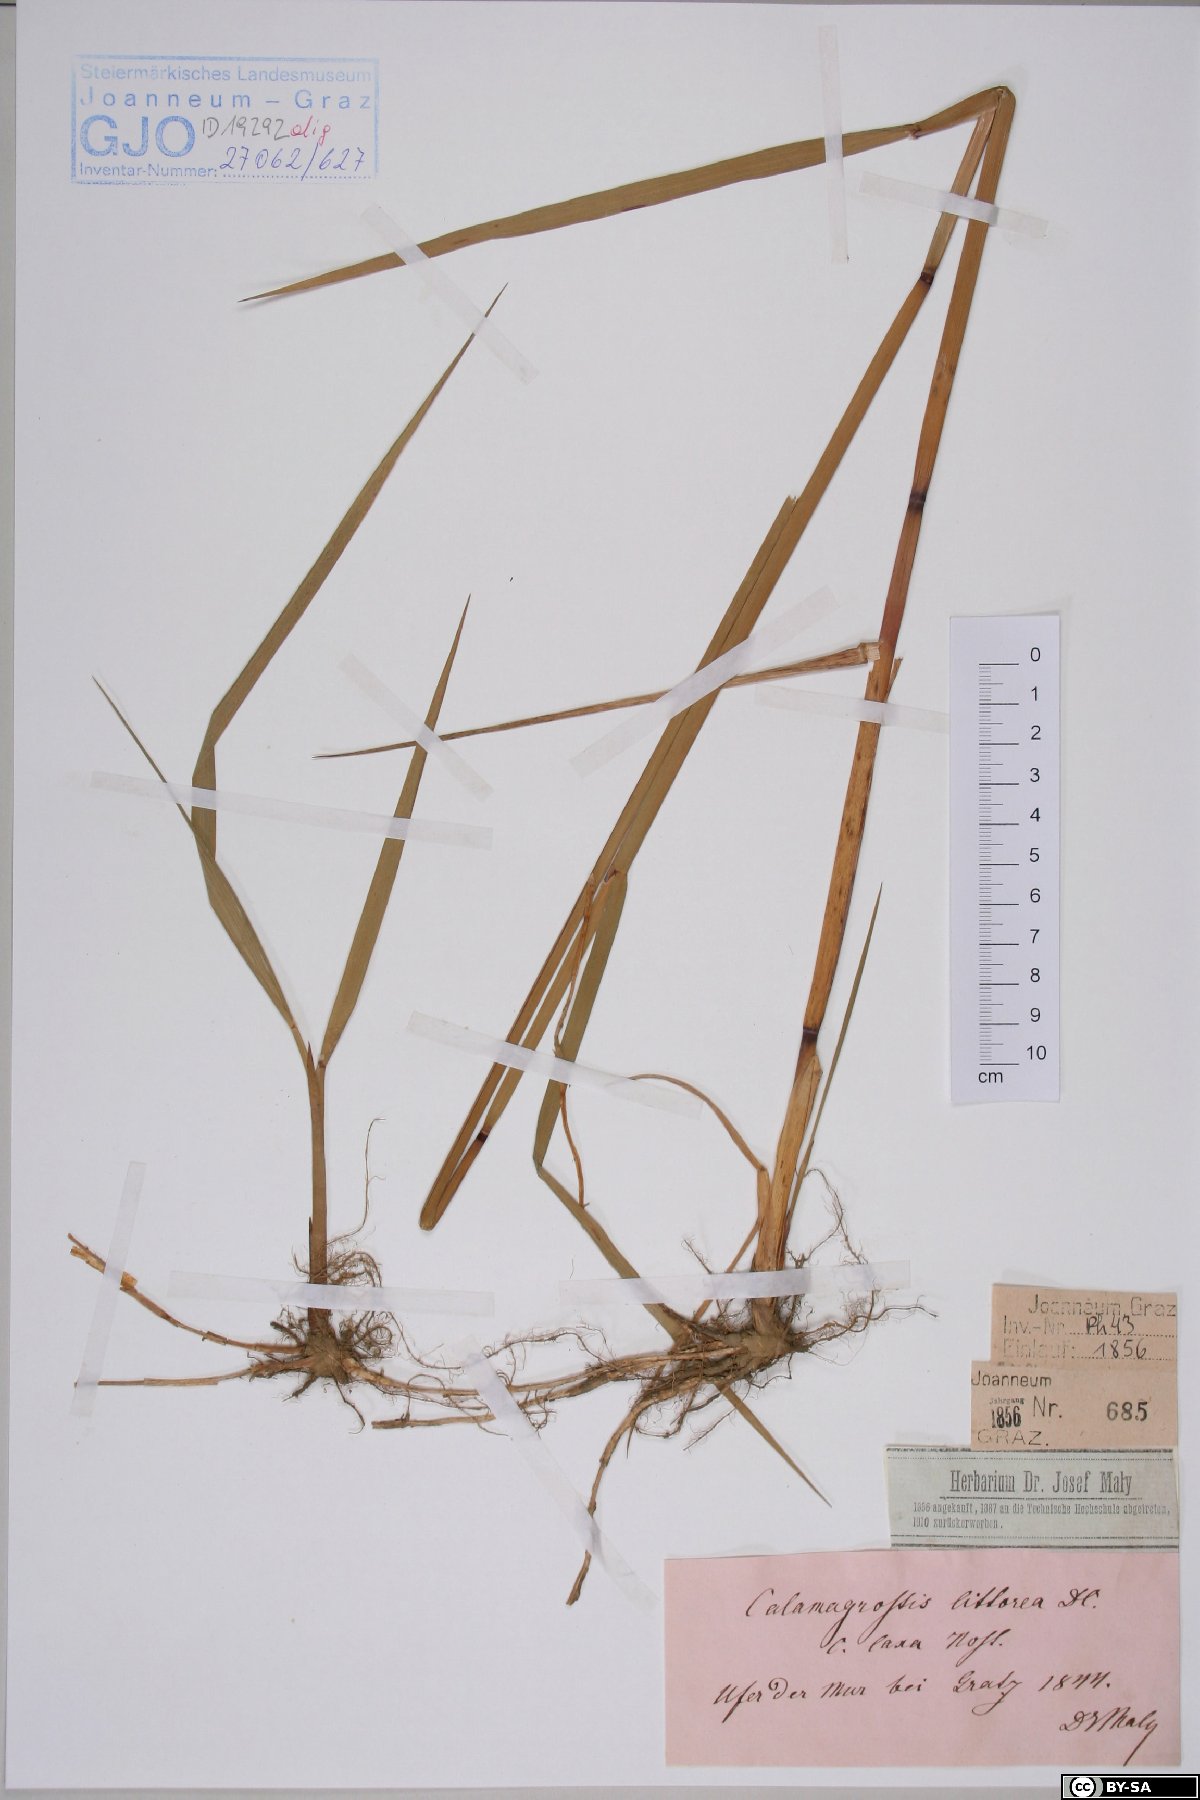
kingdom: Plantae
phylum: Tracheophyta
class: Liliopsida
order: Poales
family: Poaceae
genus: Calamagrostis
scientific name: Calamagrostis pseudophragmites
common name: Coastal small-reed
